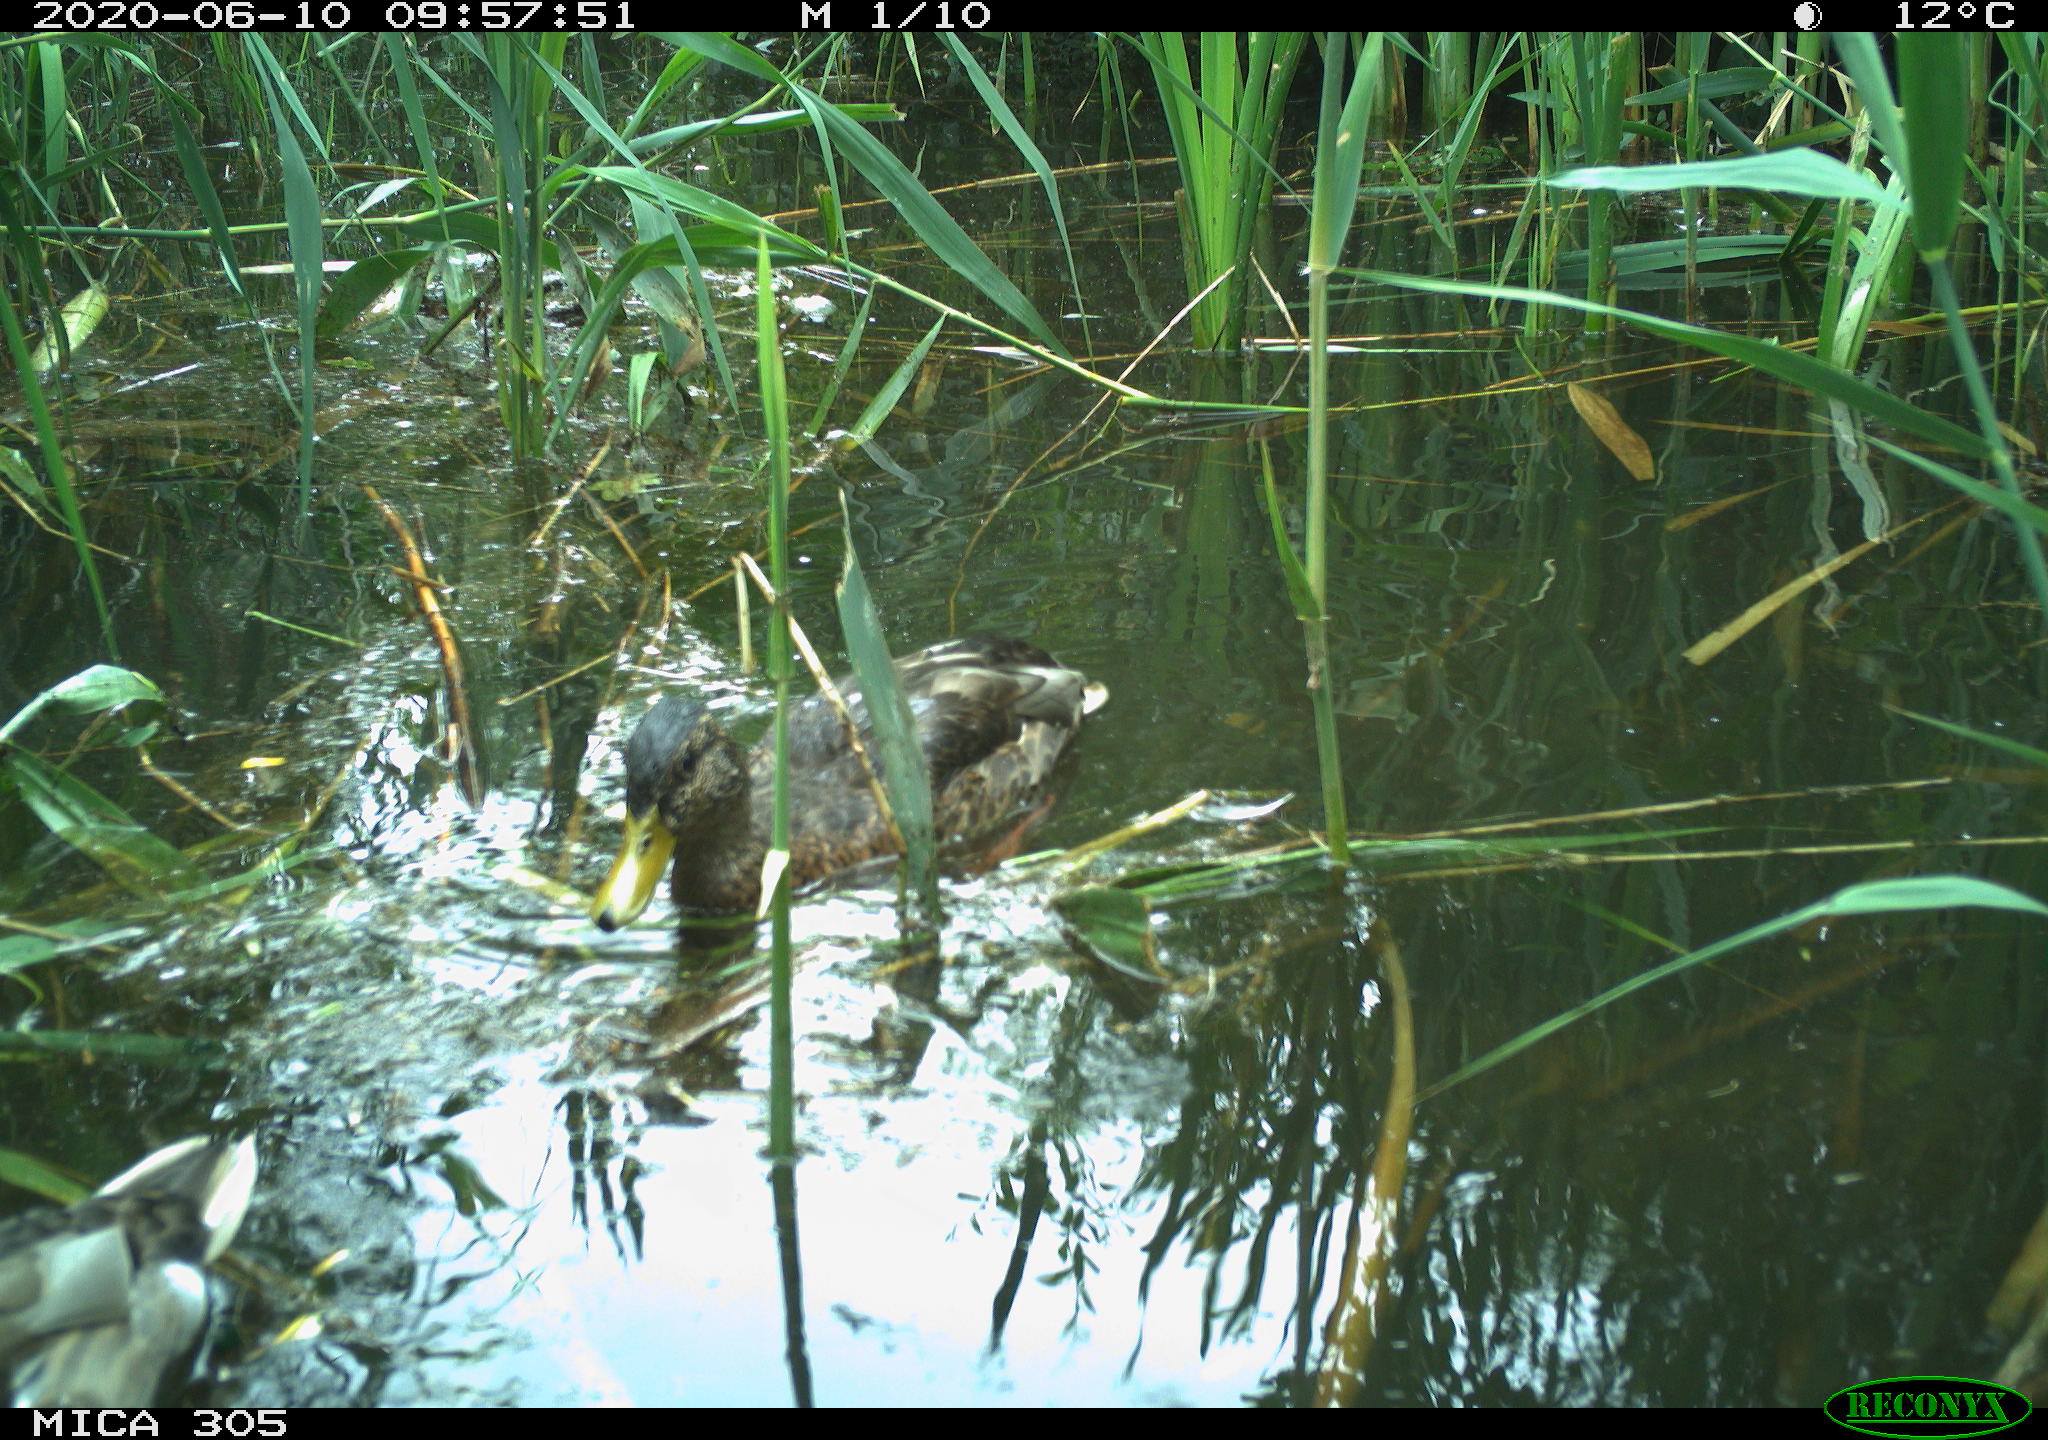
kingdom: Animalia
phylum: Chordata
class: Aves
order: Anseriformes
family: Anatidae
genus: Anas
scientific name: Anas platyrhynchos
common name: Mallard
